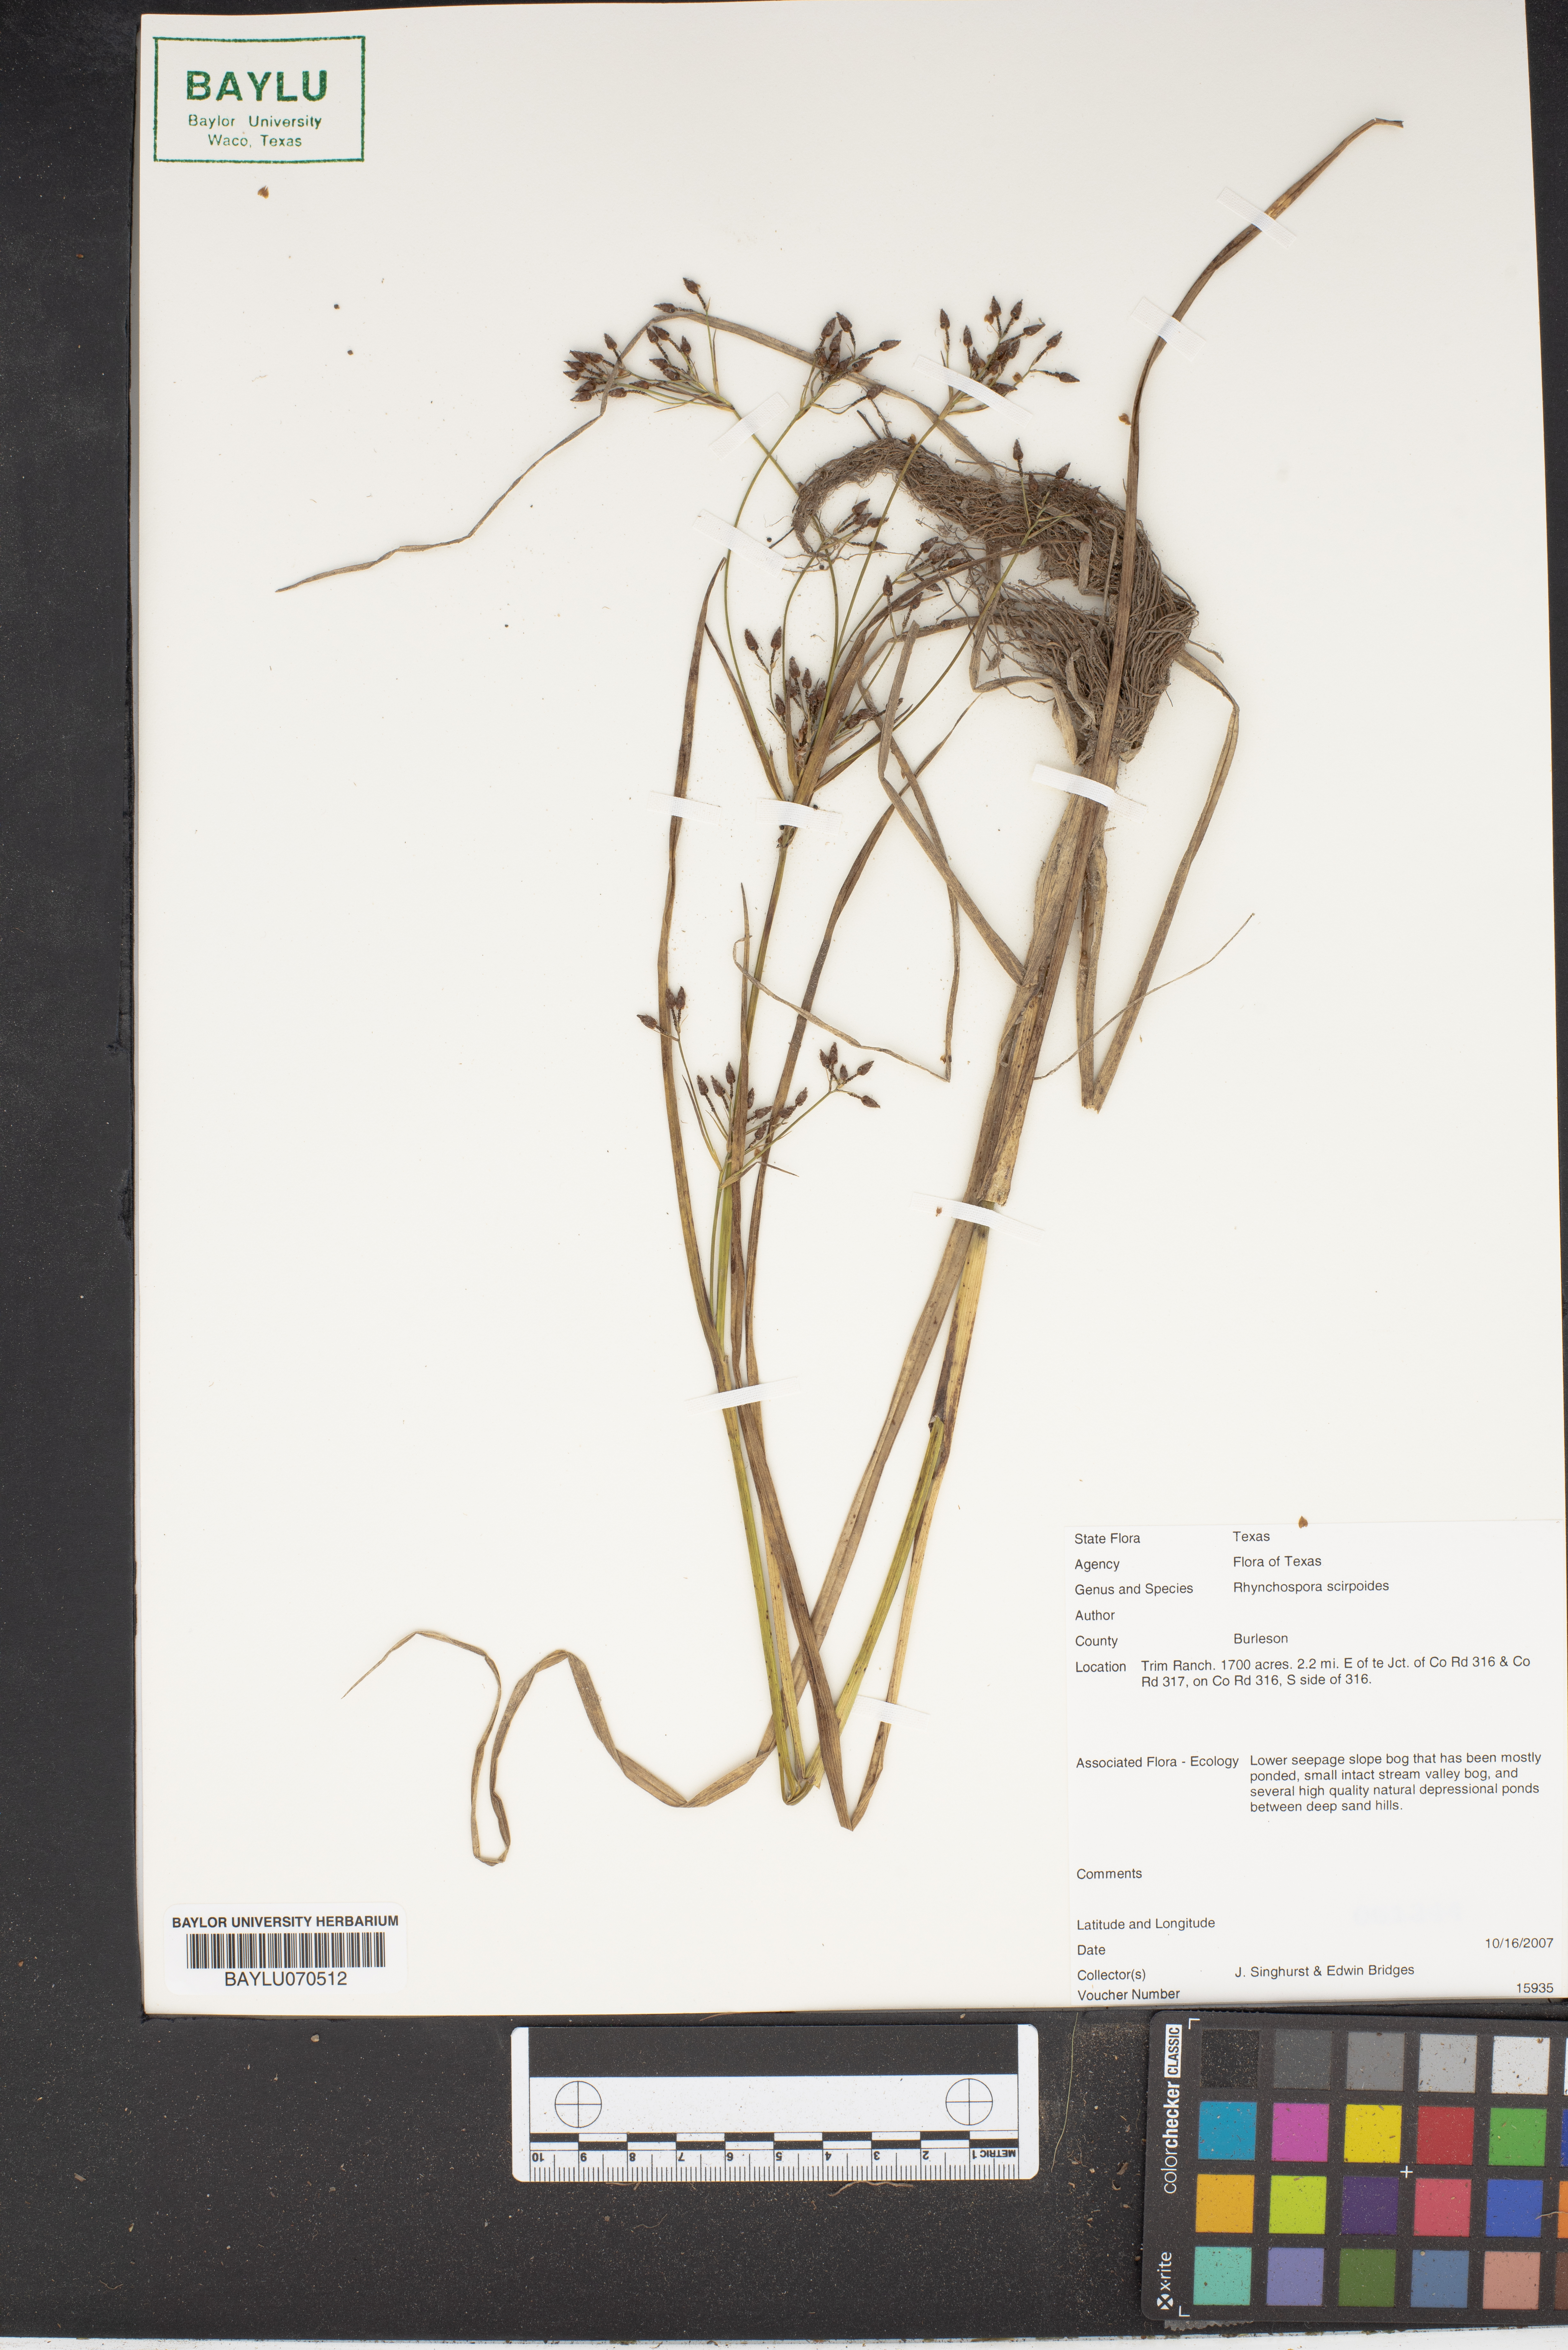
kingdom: Plantae
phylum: Tracheophyta
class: Liliopsida
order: Poales
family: Cyperaceae
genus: Rhynchospora
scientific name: Rhynchospora scirpoides
